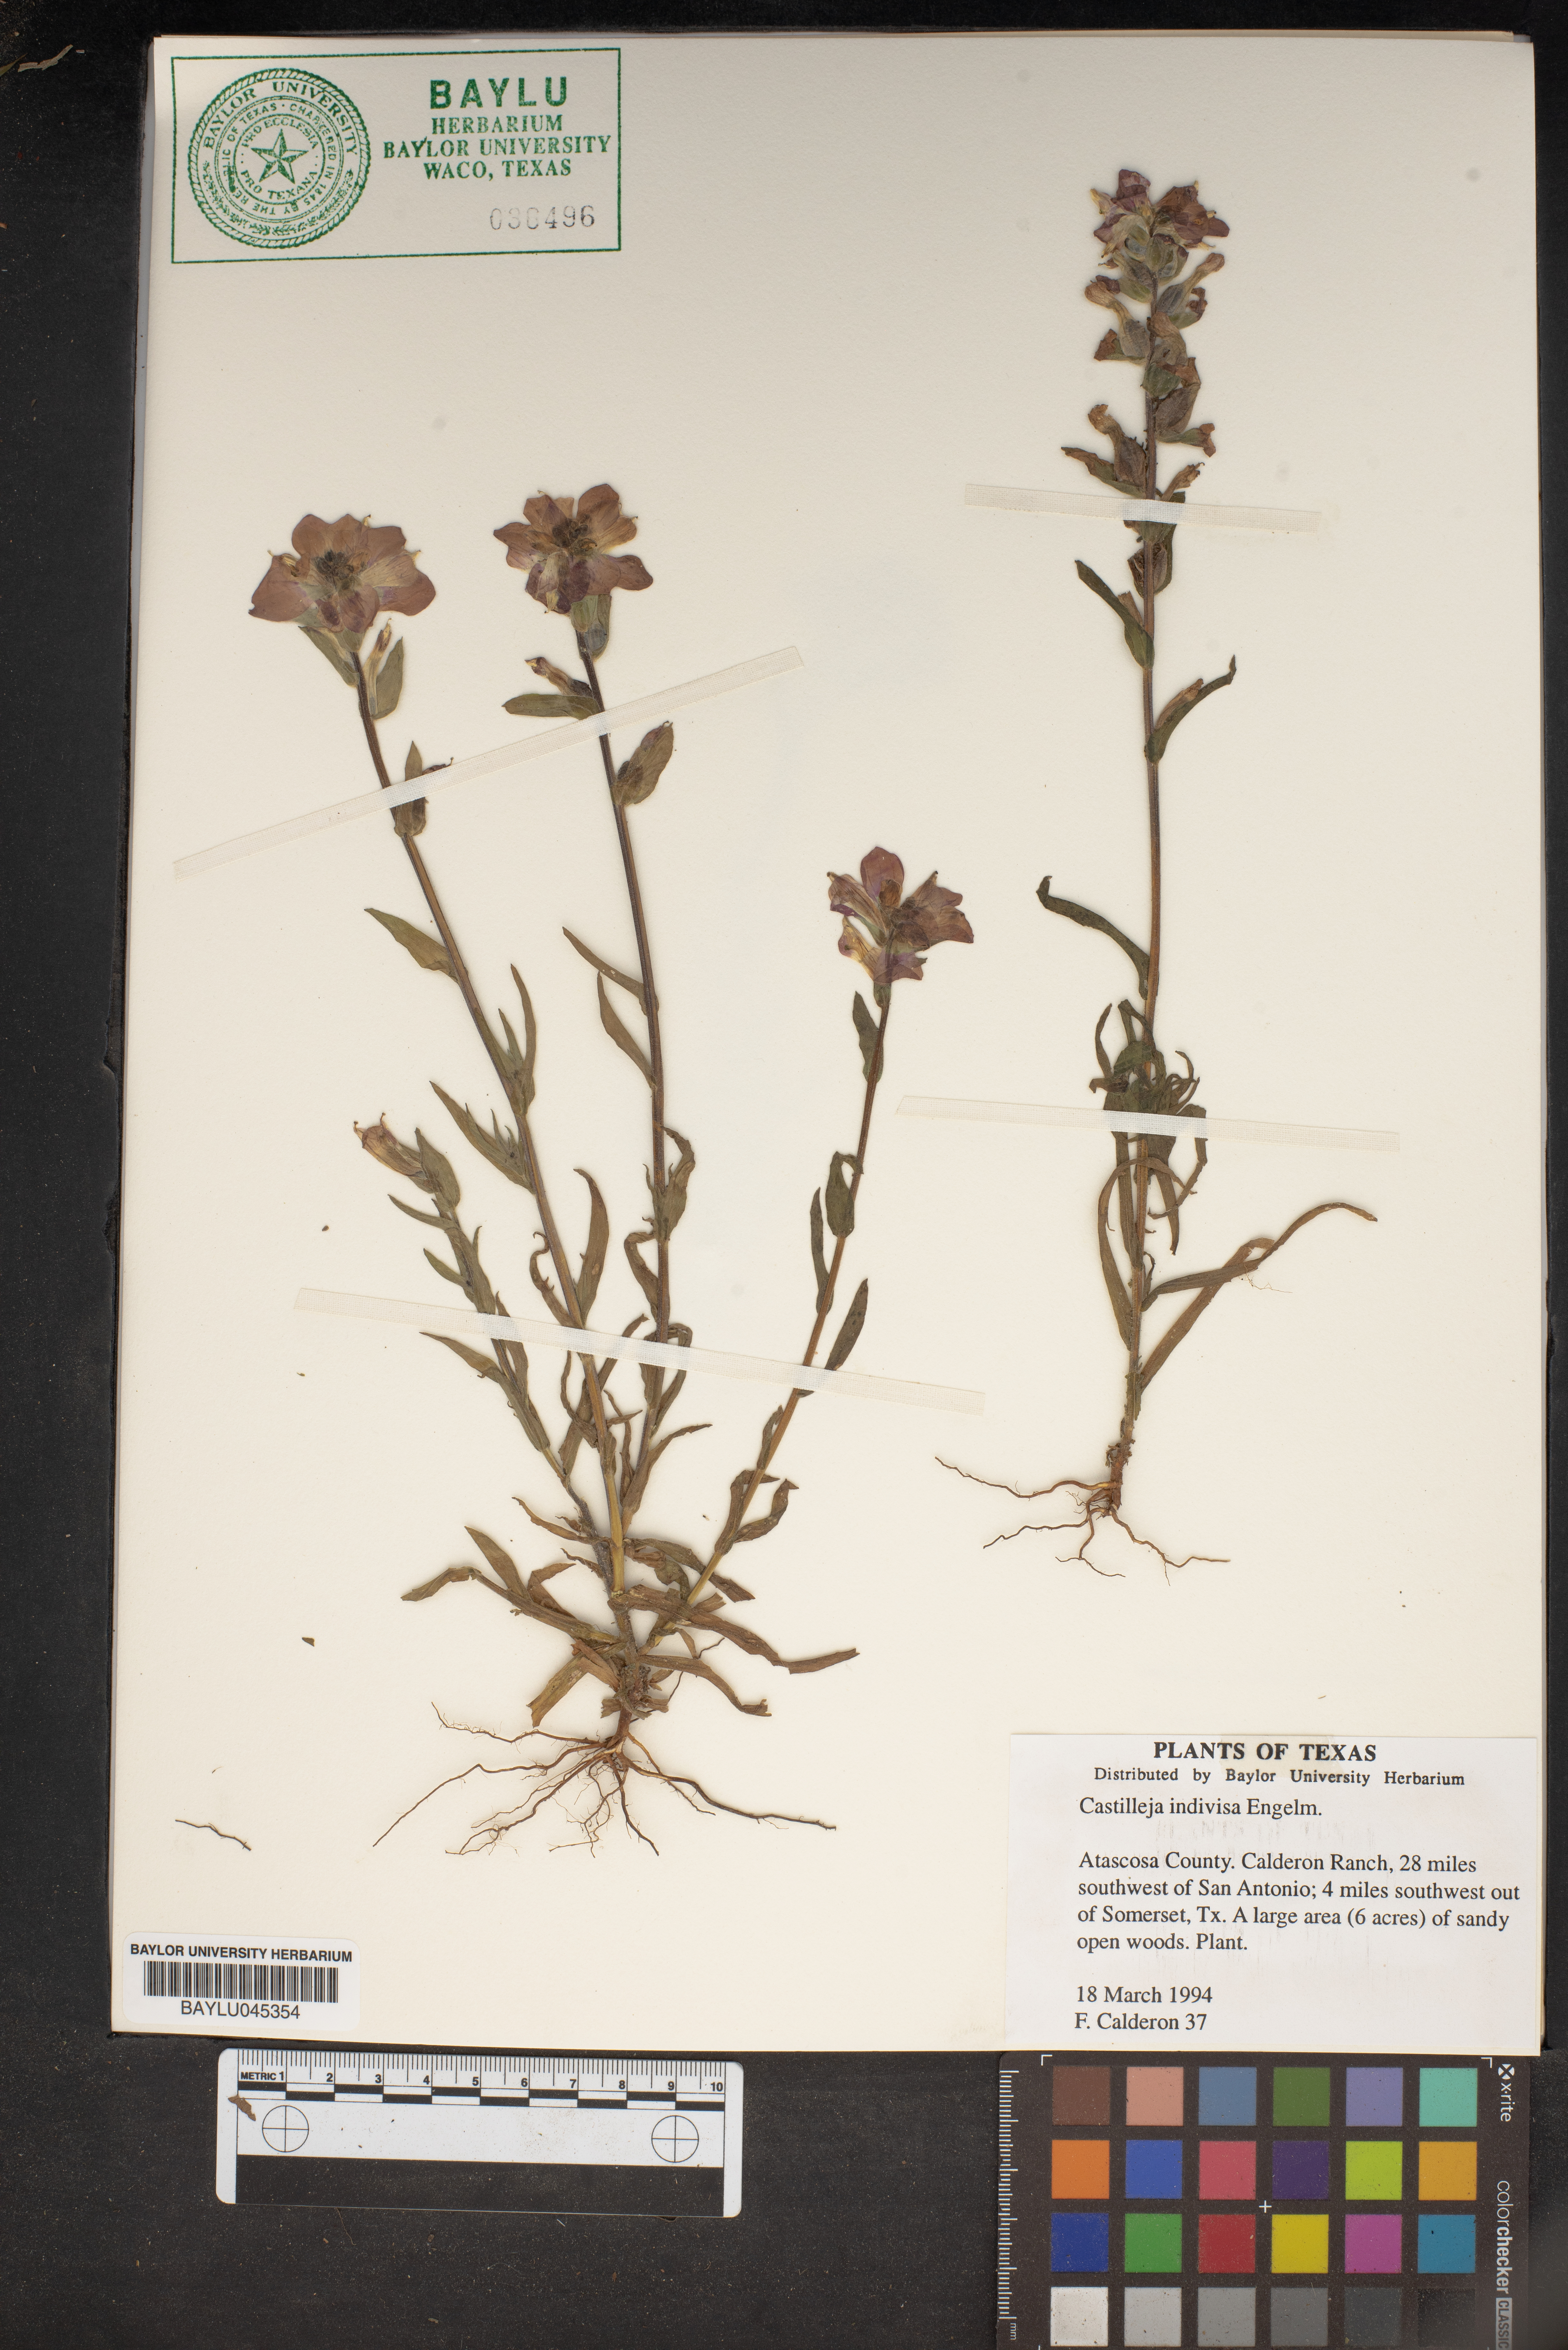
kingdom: Plantae
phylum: Tracheophyta
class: Magnoliopsida
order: Lamiales
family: Orobanchaceae
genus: Castilleja
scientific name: Castilleja indivisa
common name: Texas paintbrush
